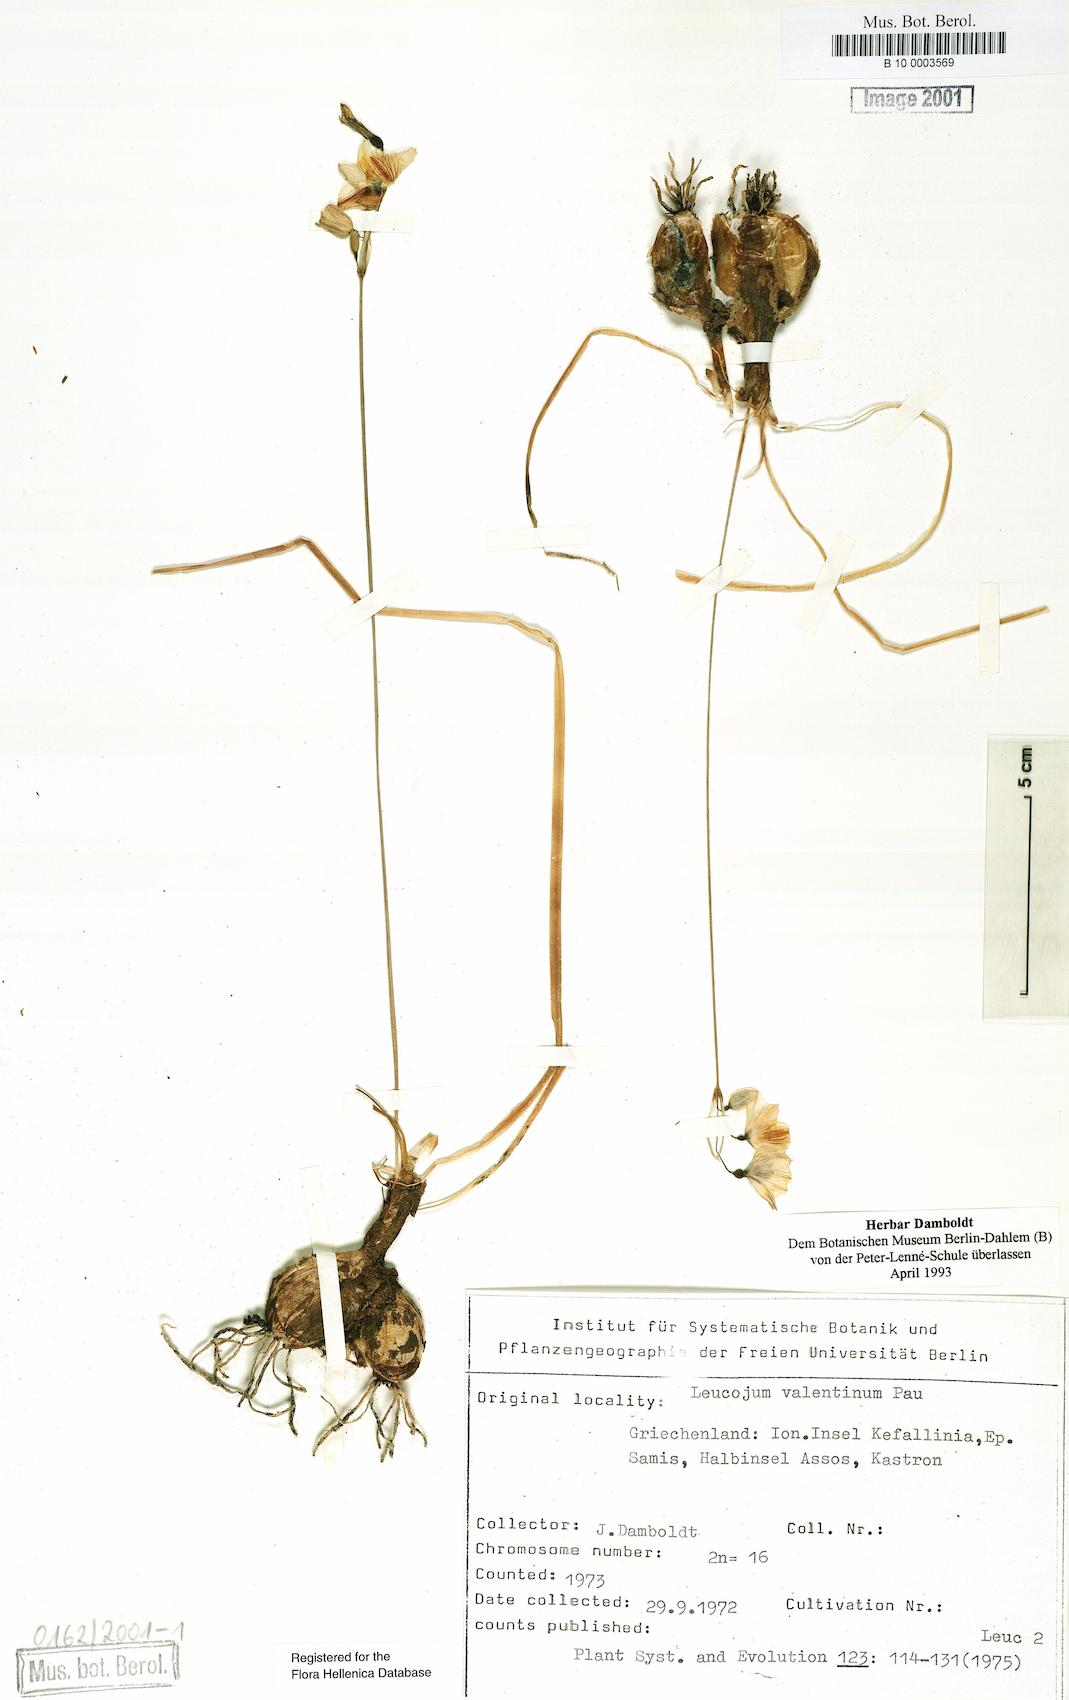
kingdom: Plantae
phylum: Tracheophyta
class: Liliopsida
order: Asparagales
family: Amaryllidaceae
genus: Acis
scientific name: Acis valentina
